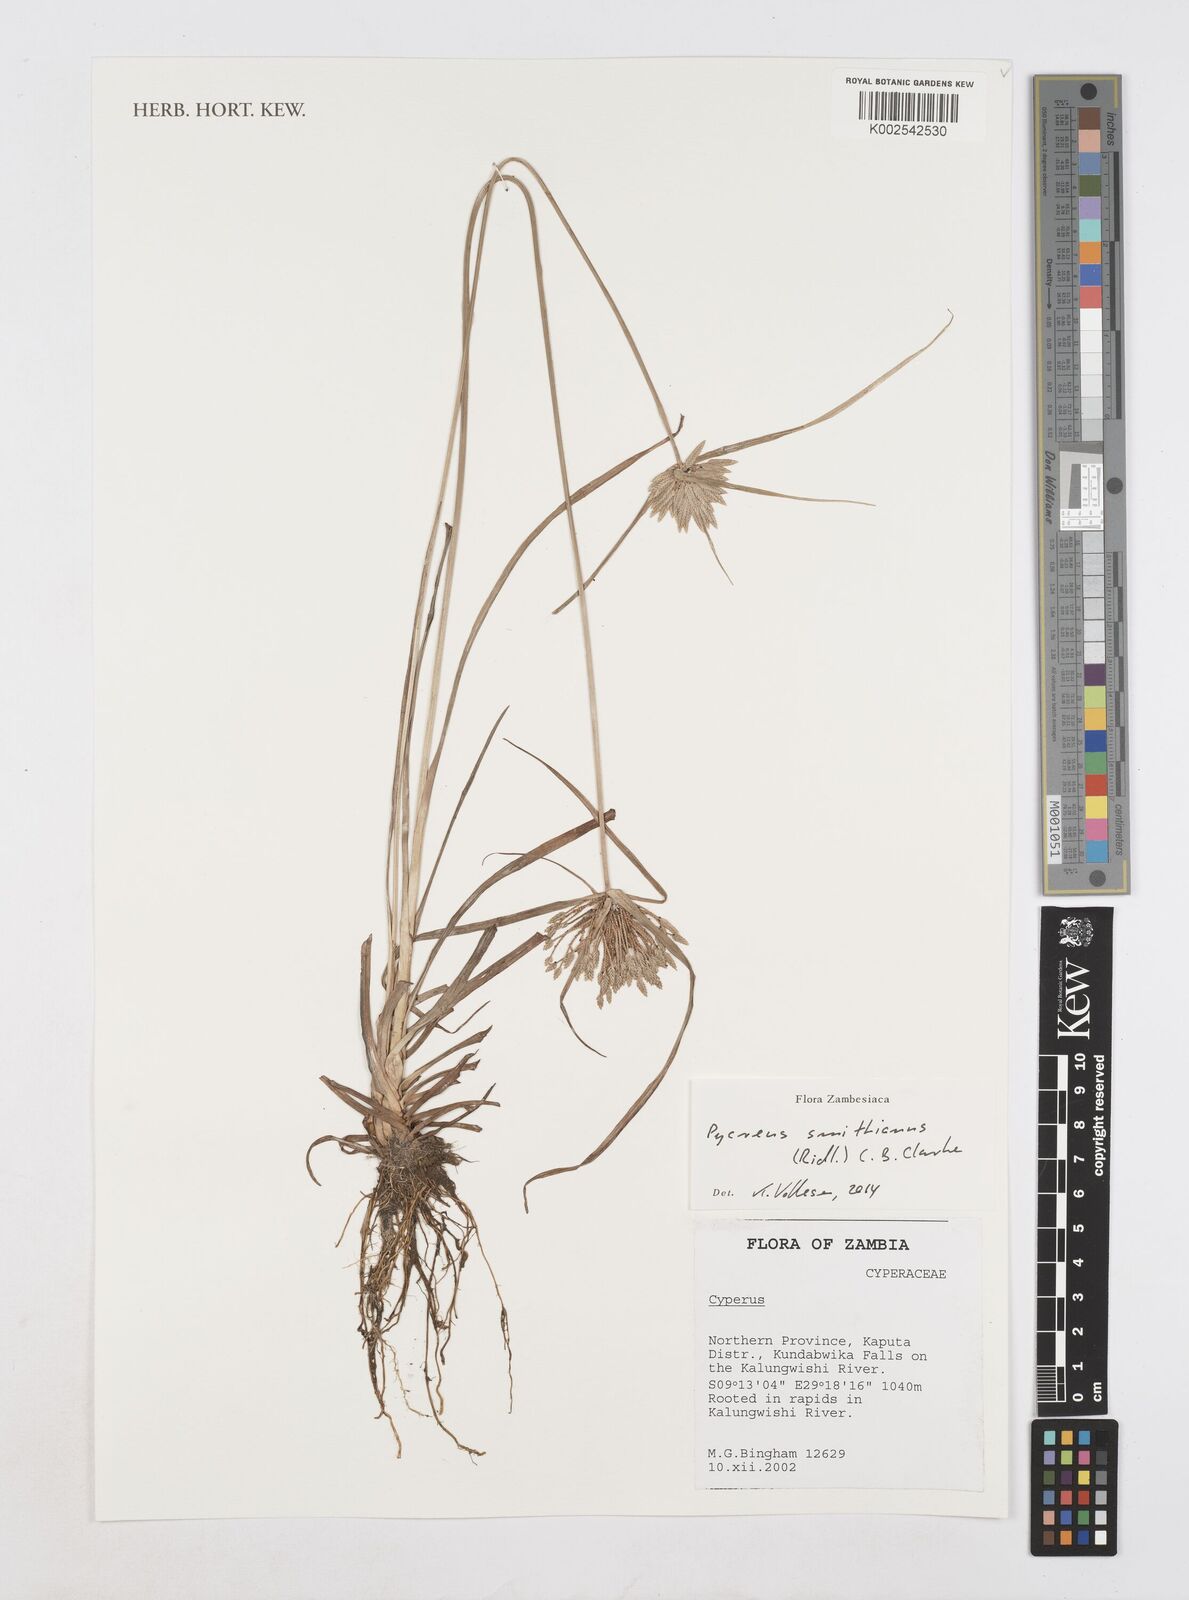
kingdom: Plantae
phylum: Tracheophyta
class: Liliopsida
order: Poales
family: Cyperaceae
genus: Cyperus
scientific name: Cyperus smithianus
